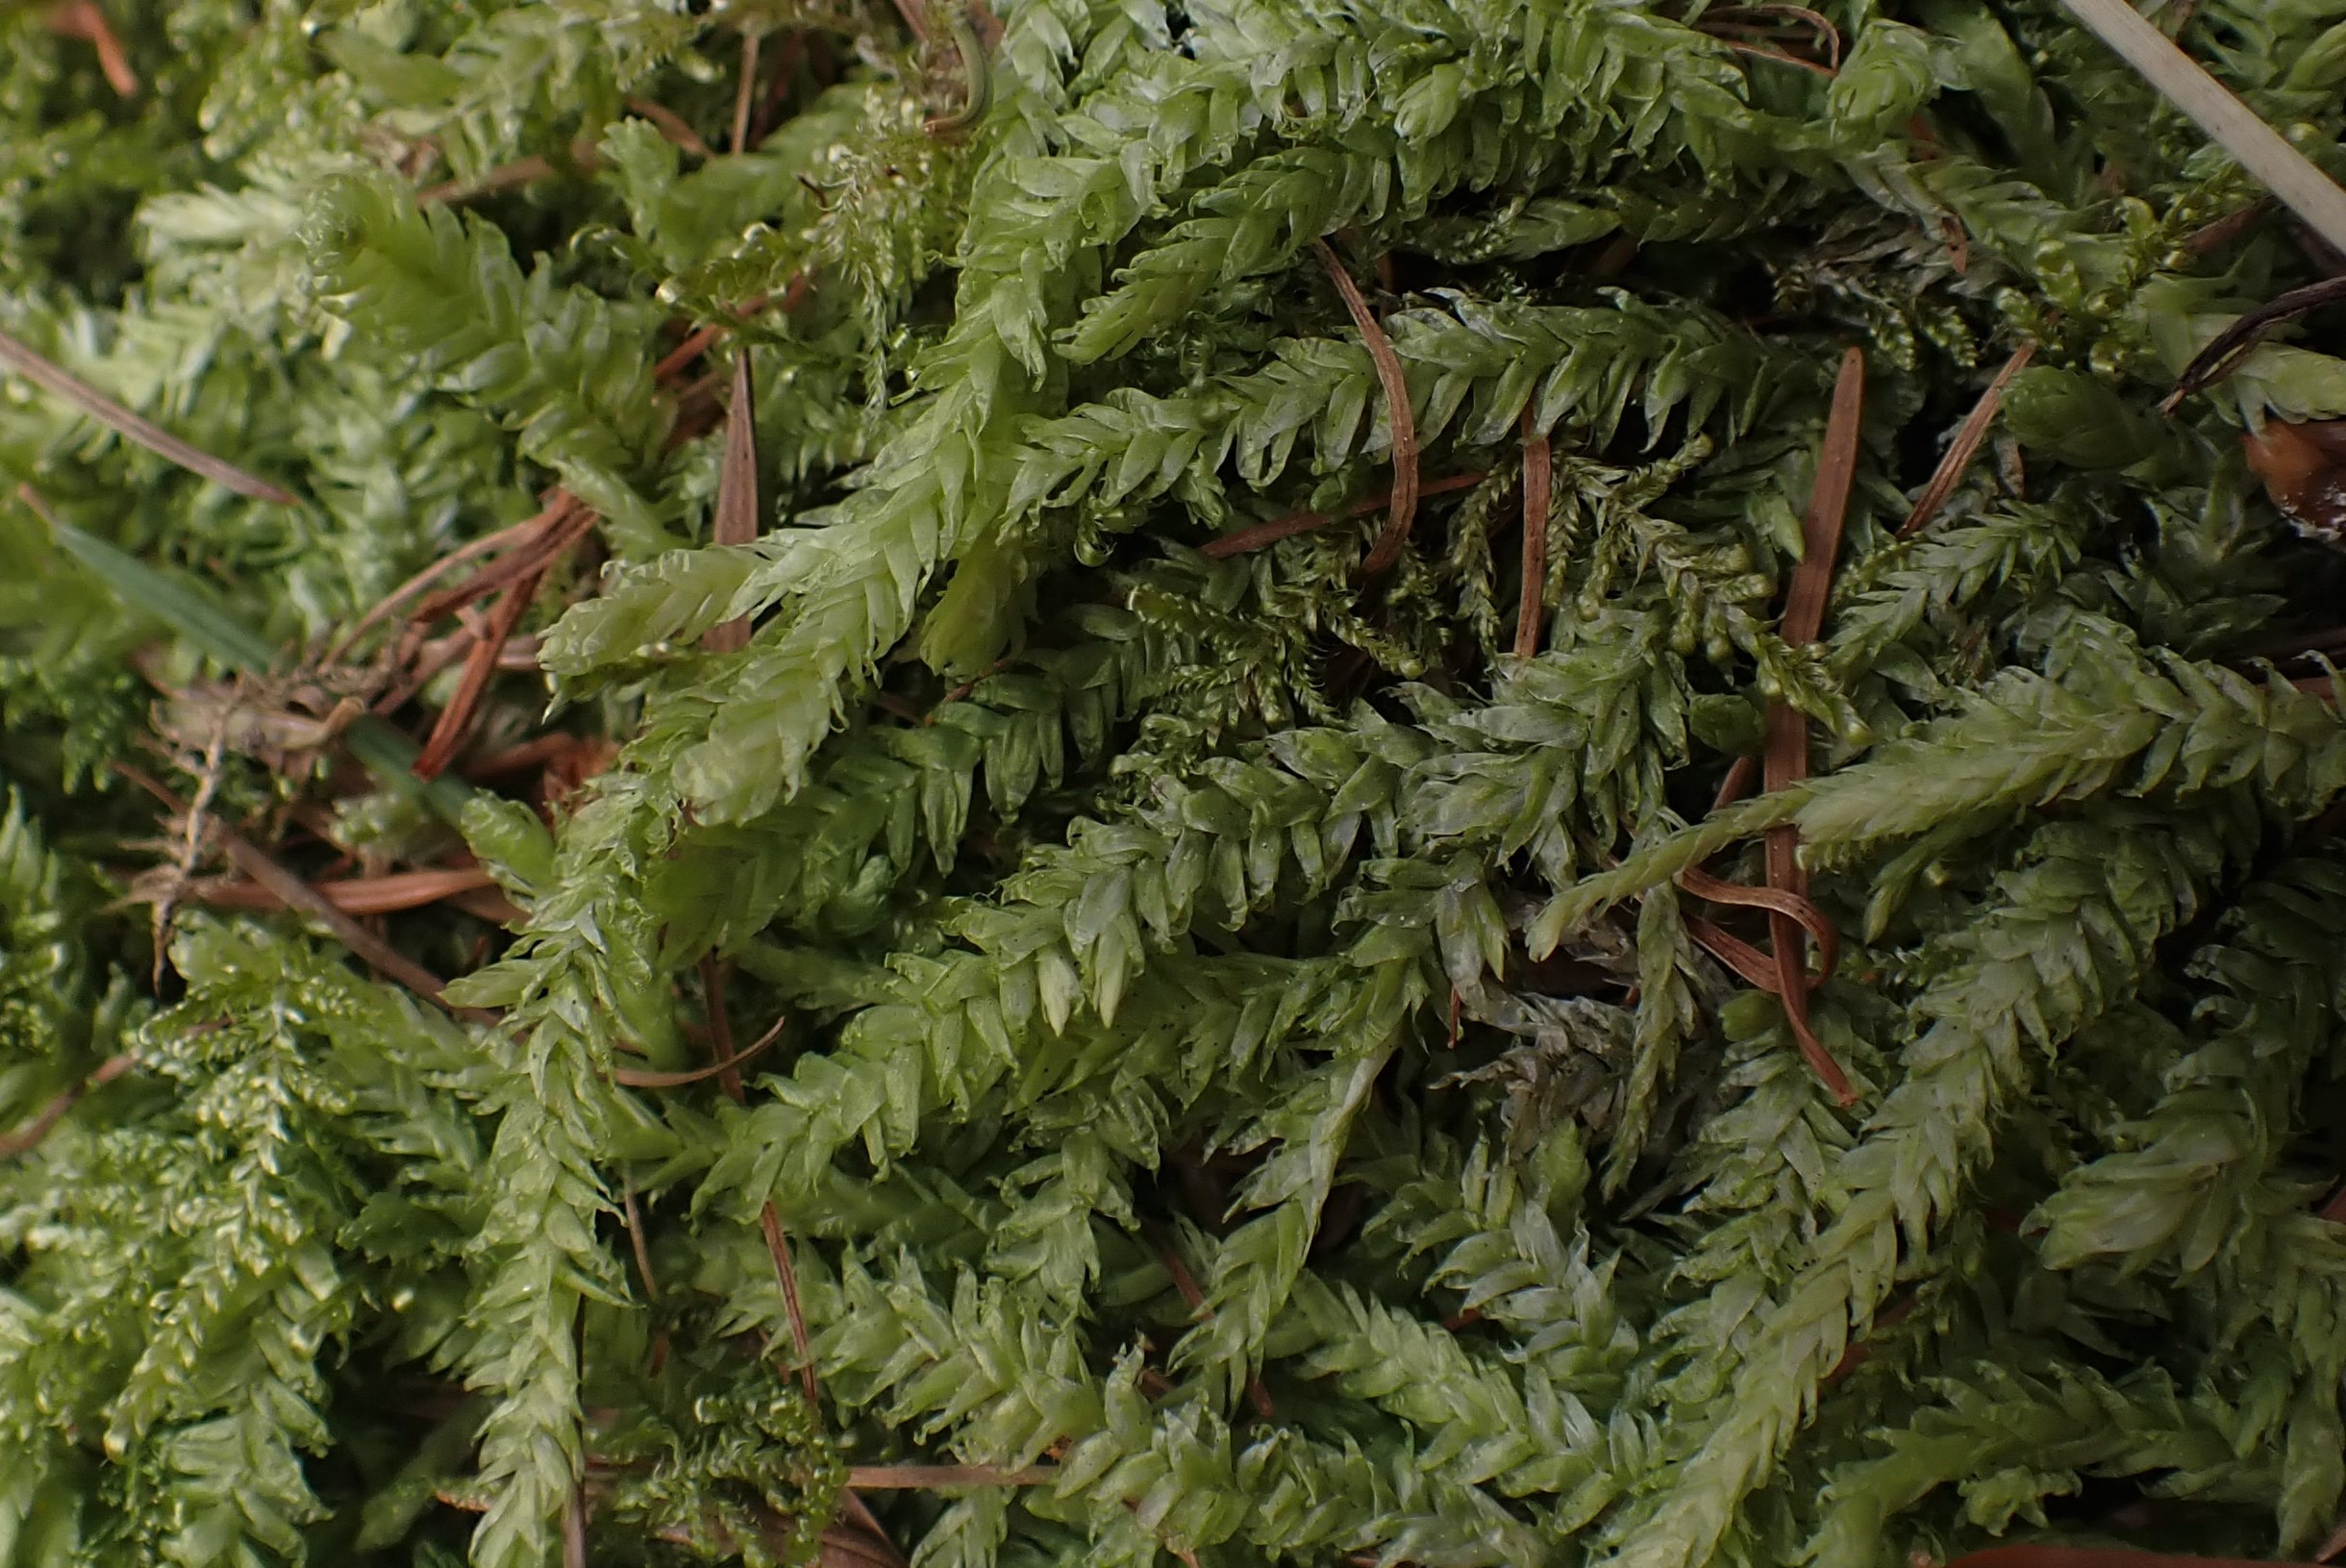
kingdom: Plantae
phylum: Bryophyta
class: Bryopsida
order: Hypnales
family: Plagiotheciaceae
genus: Plagiothecium
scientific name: Plagiothecium undulatum
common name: Bølget tæppemos
